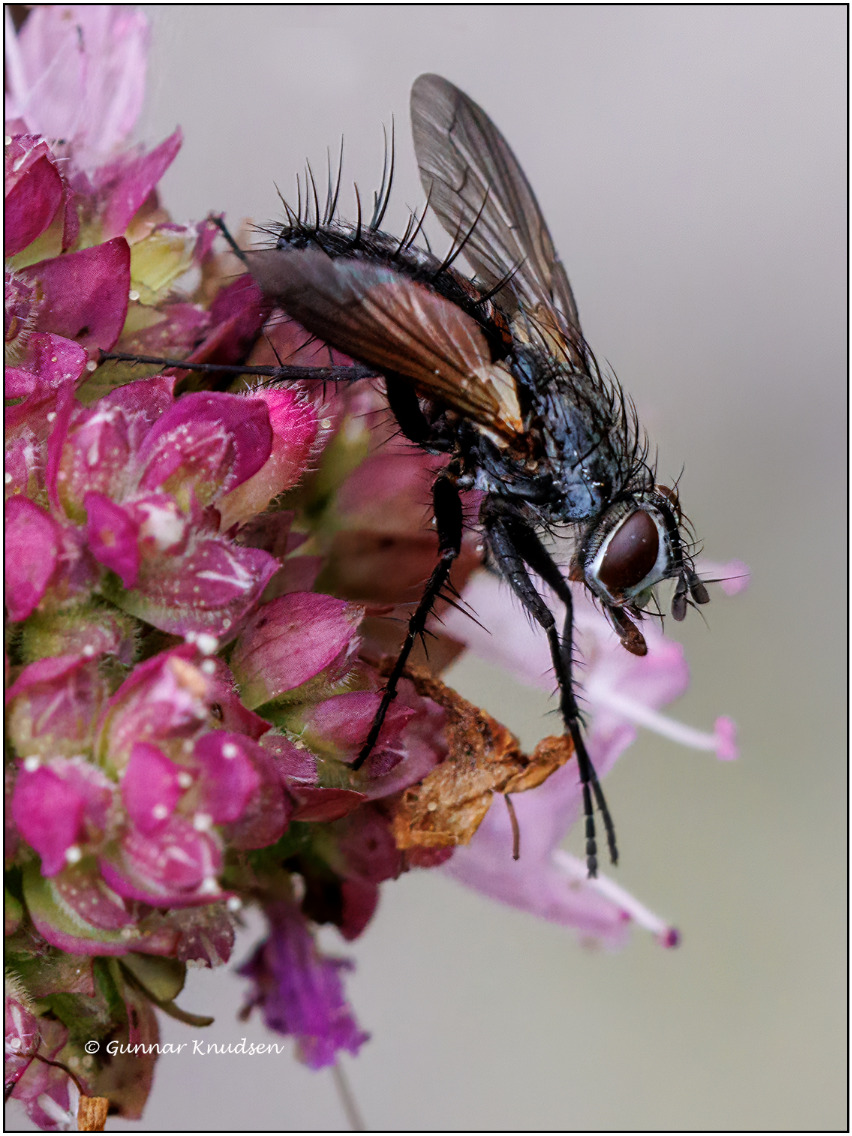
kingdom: Animalia
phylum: Arthropoda
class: Insecta
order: Diptera
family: Tachinidae
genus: Eriothrix
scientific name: Eriothrix rufomaculatus
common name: Rød snylteflue
